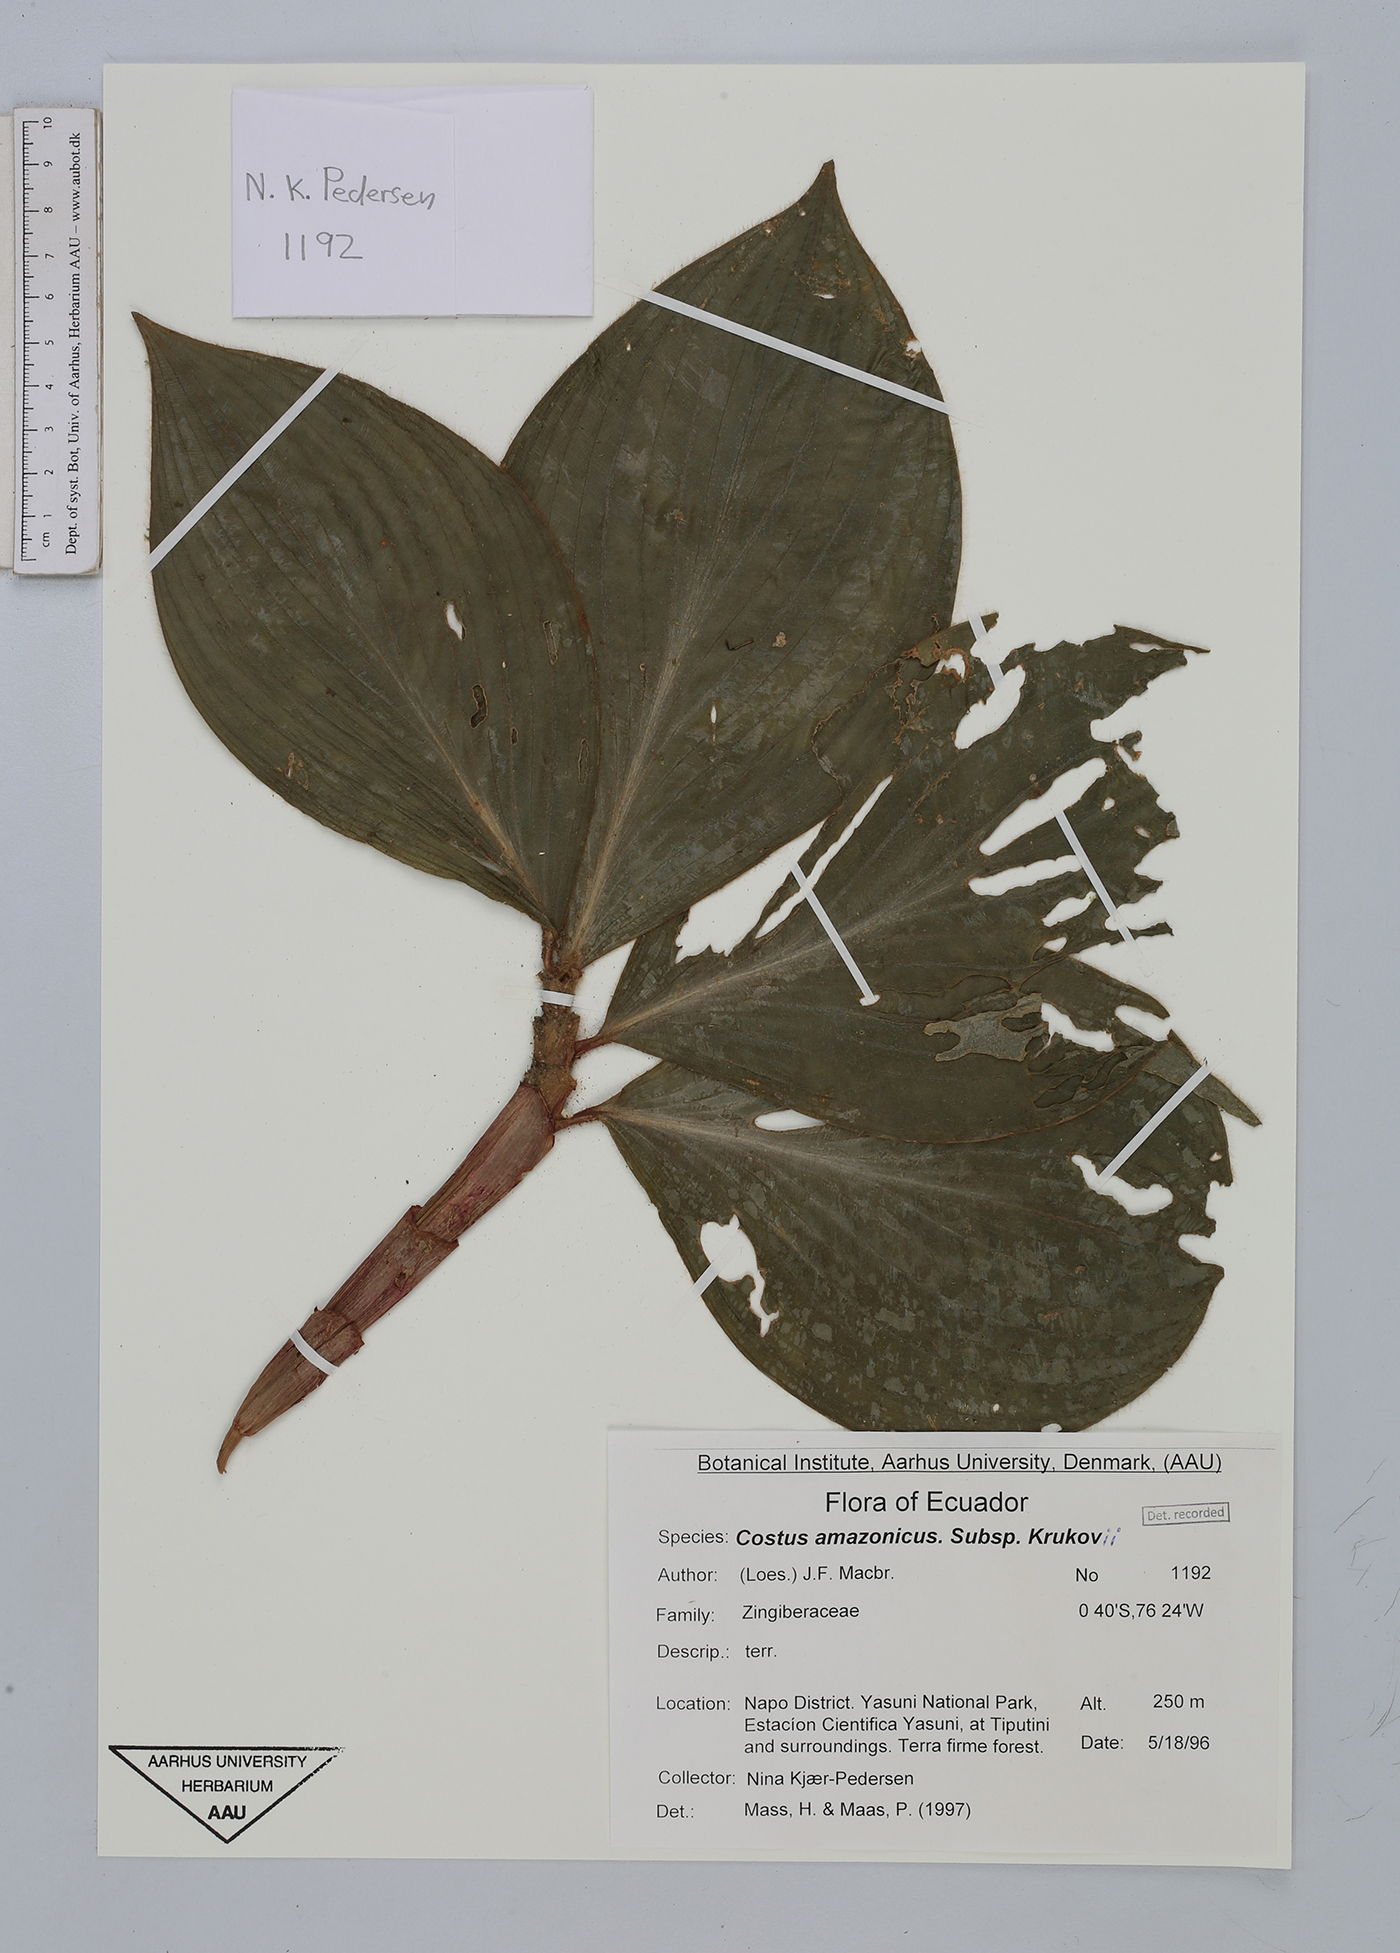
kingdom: Plantae
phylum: Tracheophyta
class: Liliopsida
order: Zingiberales
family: Costaceae
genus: Costus
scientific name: Costus amazonicus
